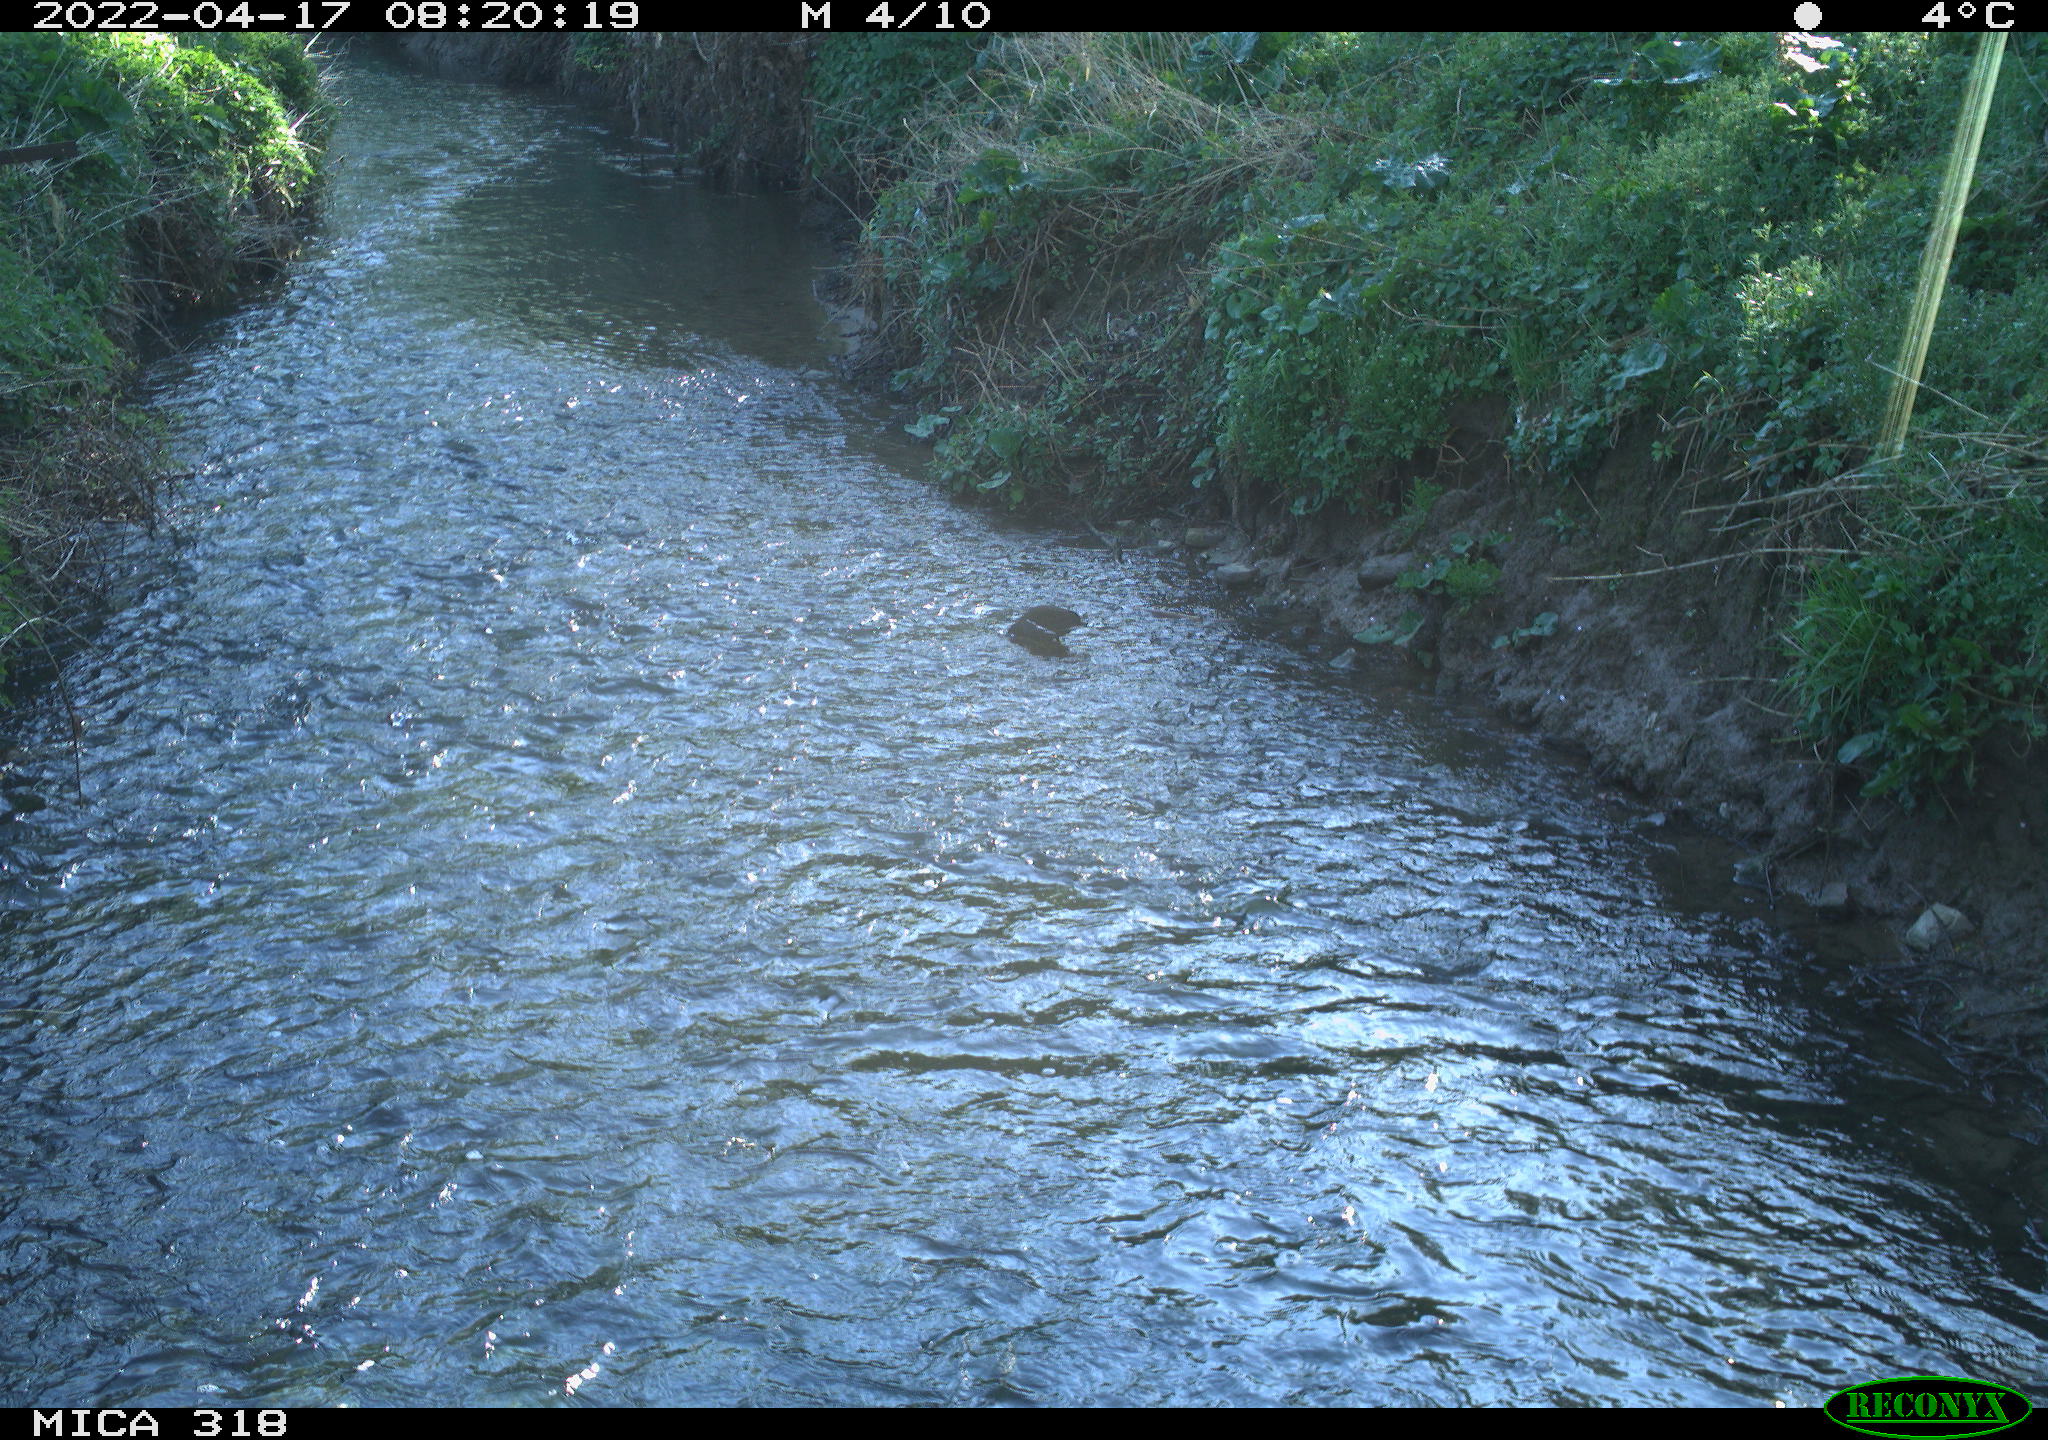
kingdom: Animalia
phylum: Chordata
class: Aves
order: Gruiformes
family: Rallidae
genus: Gallinula
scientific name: Gallinula chloropus
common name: Common moorhen
